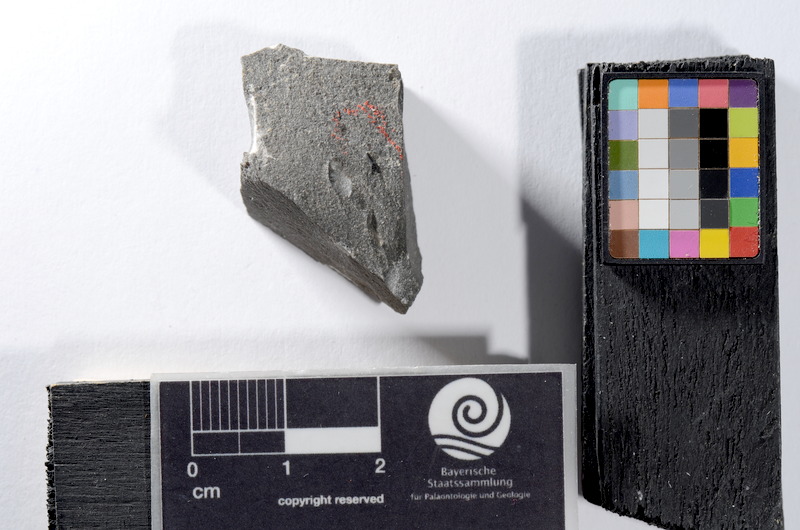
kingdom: Animalia
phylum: Chordata
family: Saurichthyidae
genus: Saurichthys
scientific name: Saurichthys acuminatus
